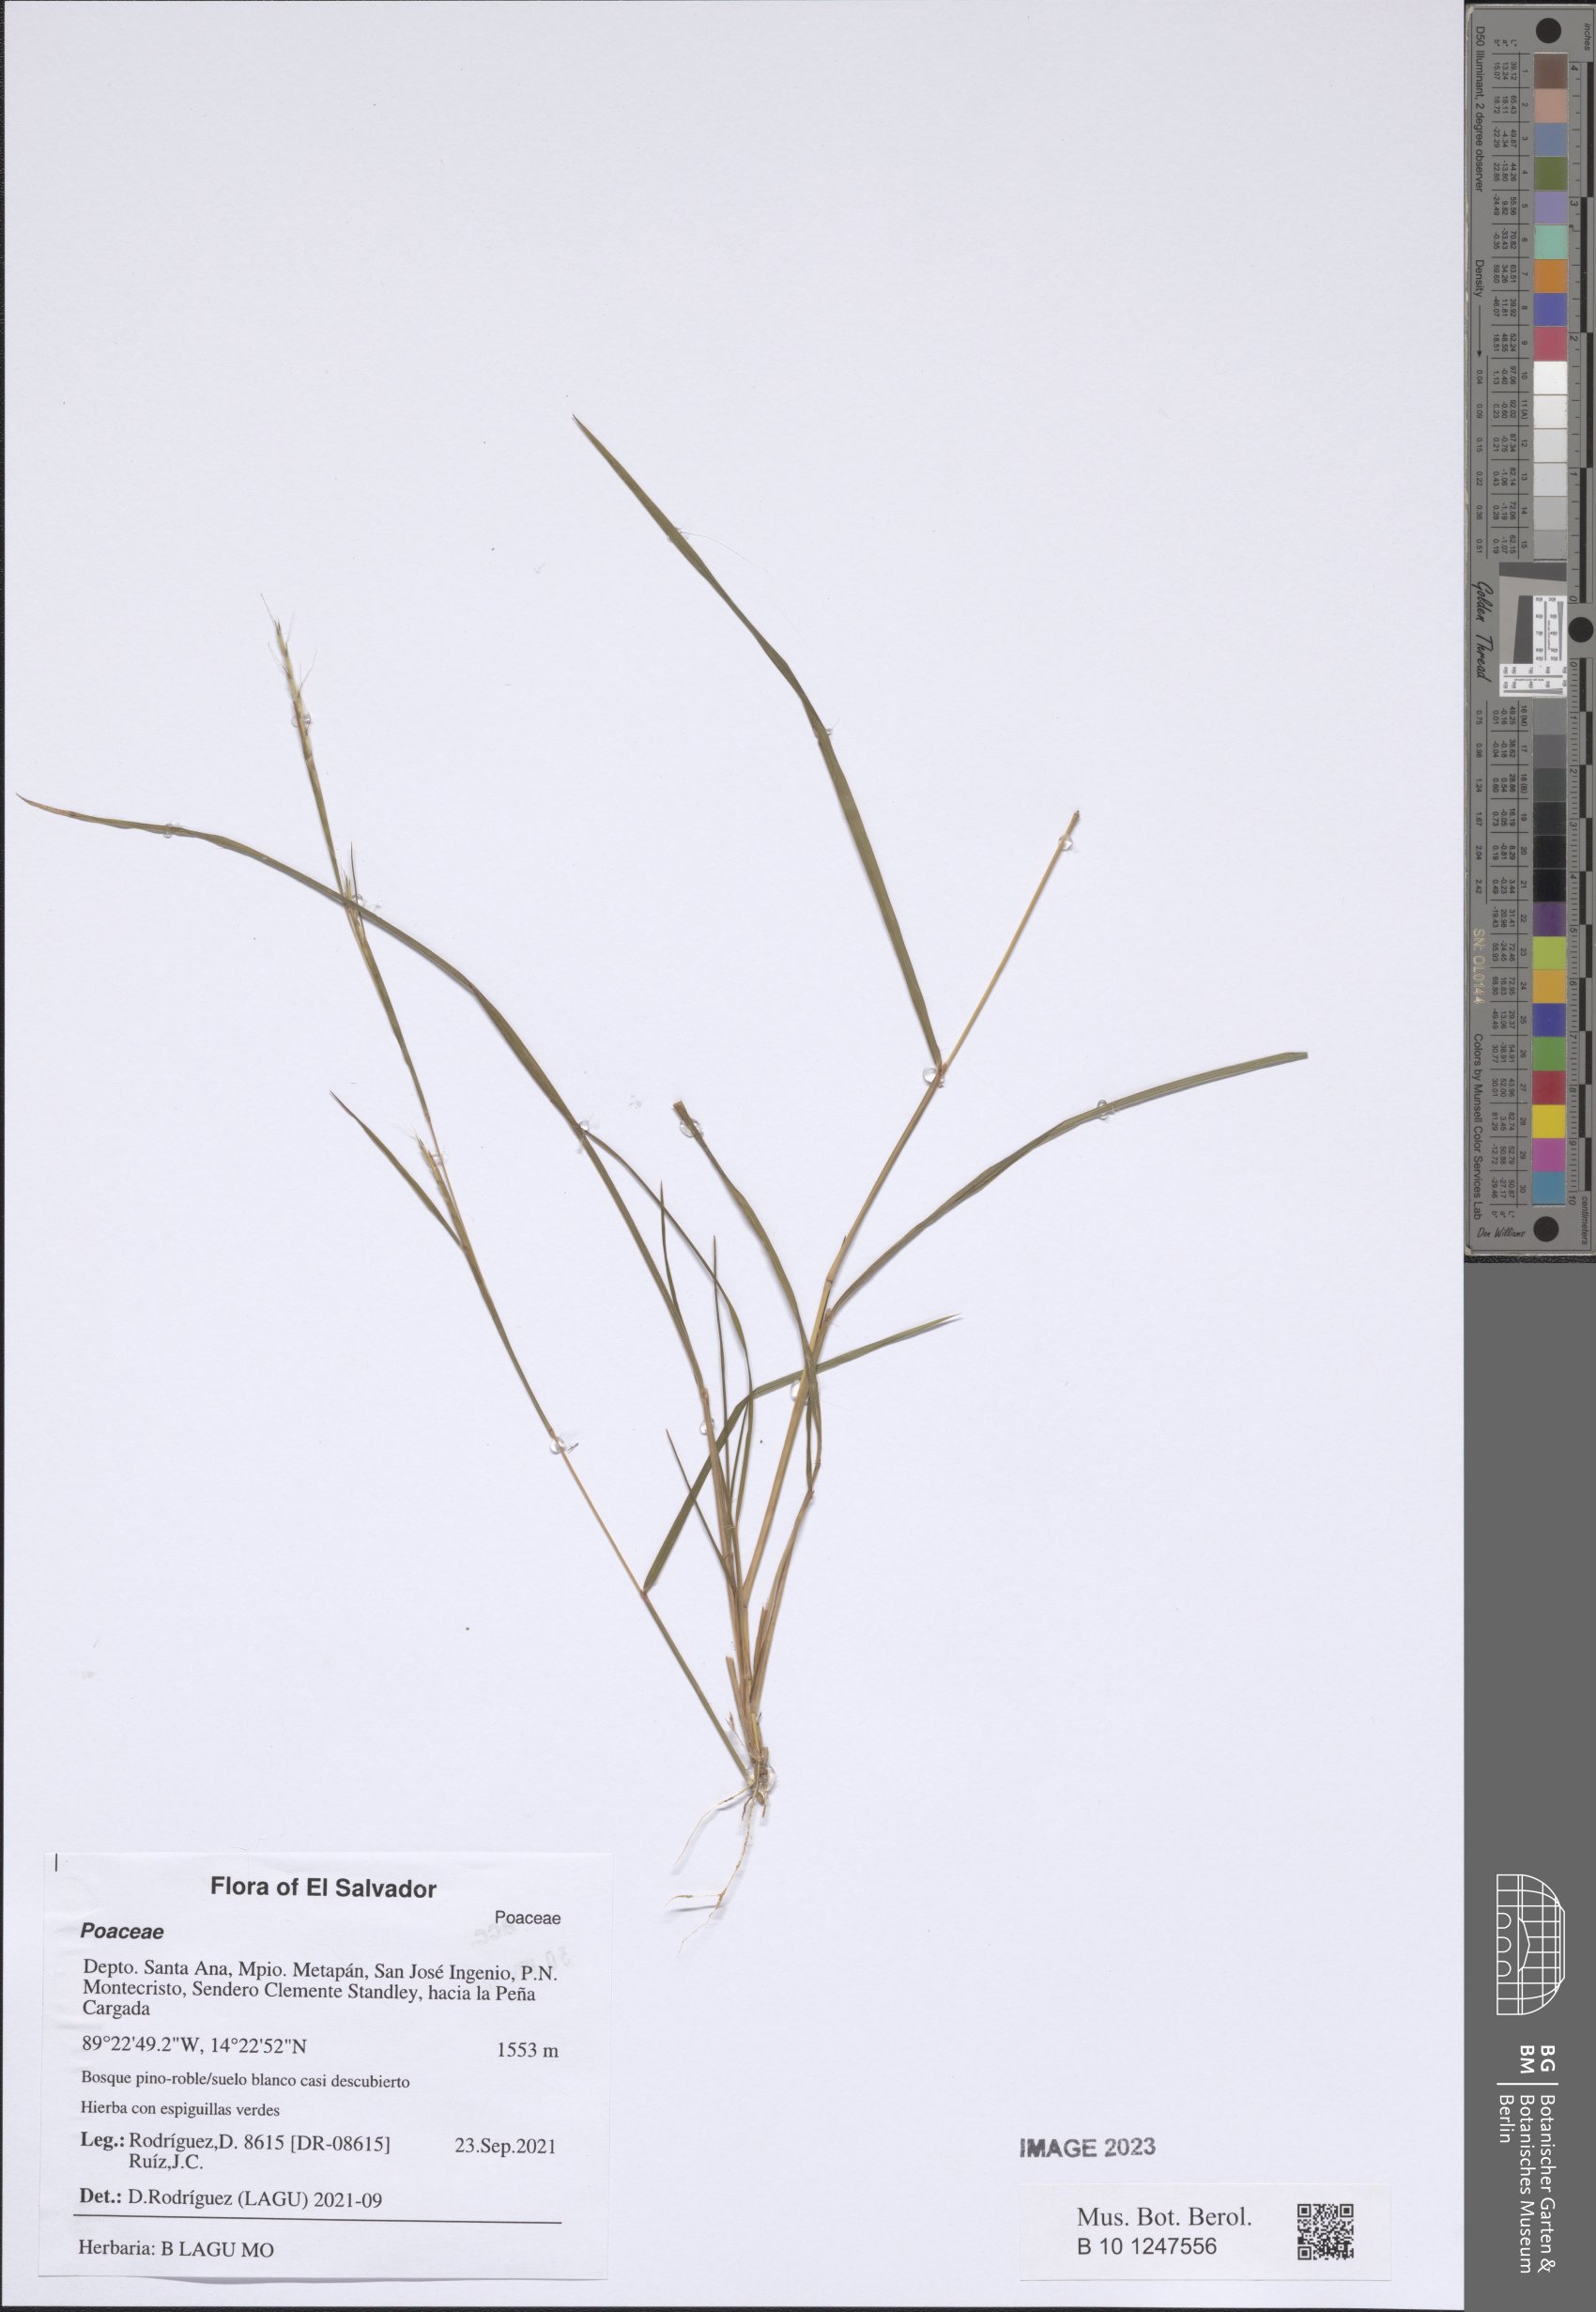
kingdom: Plantae
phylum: Tracheophyta
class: Liliopsida
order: Poales
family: Poaceae
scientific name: Poaceae
